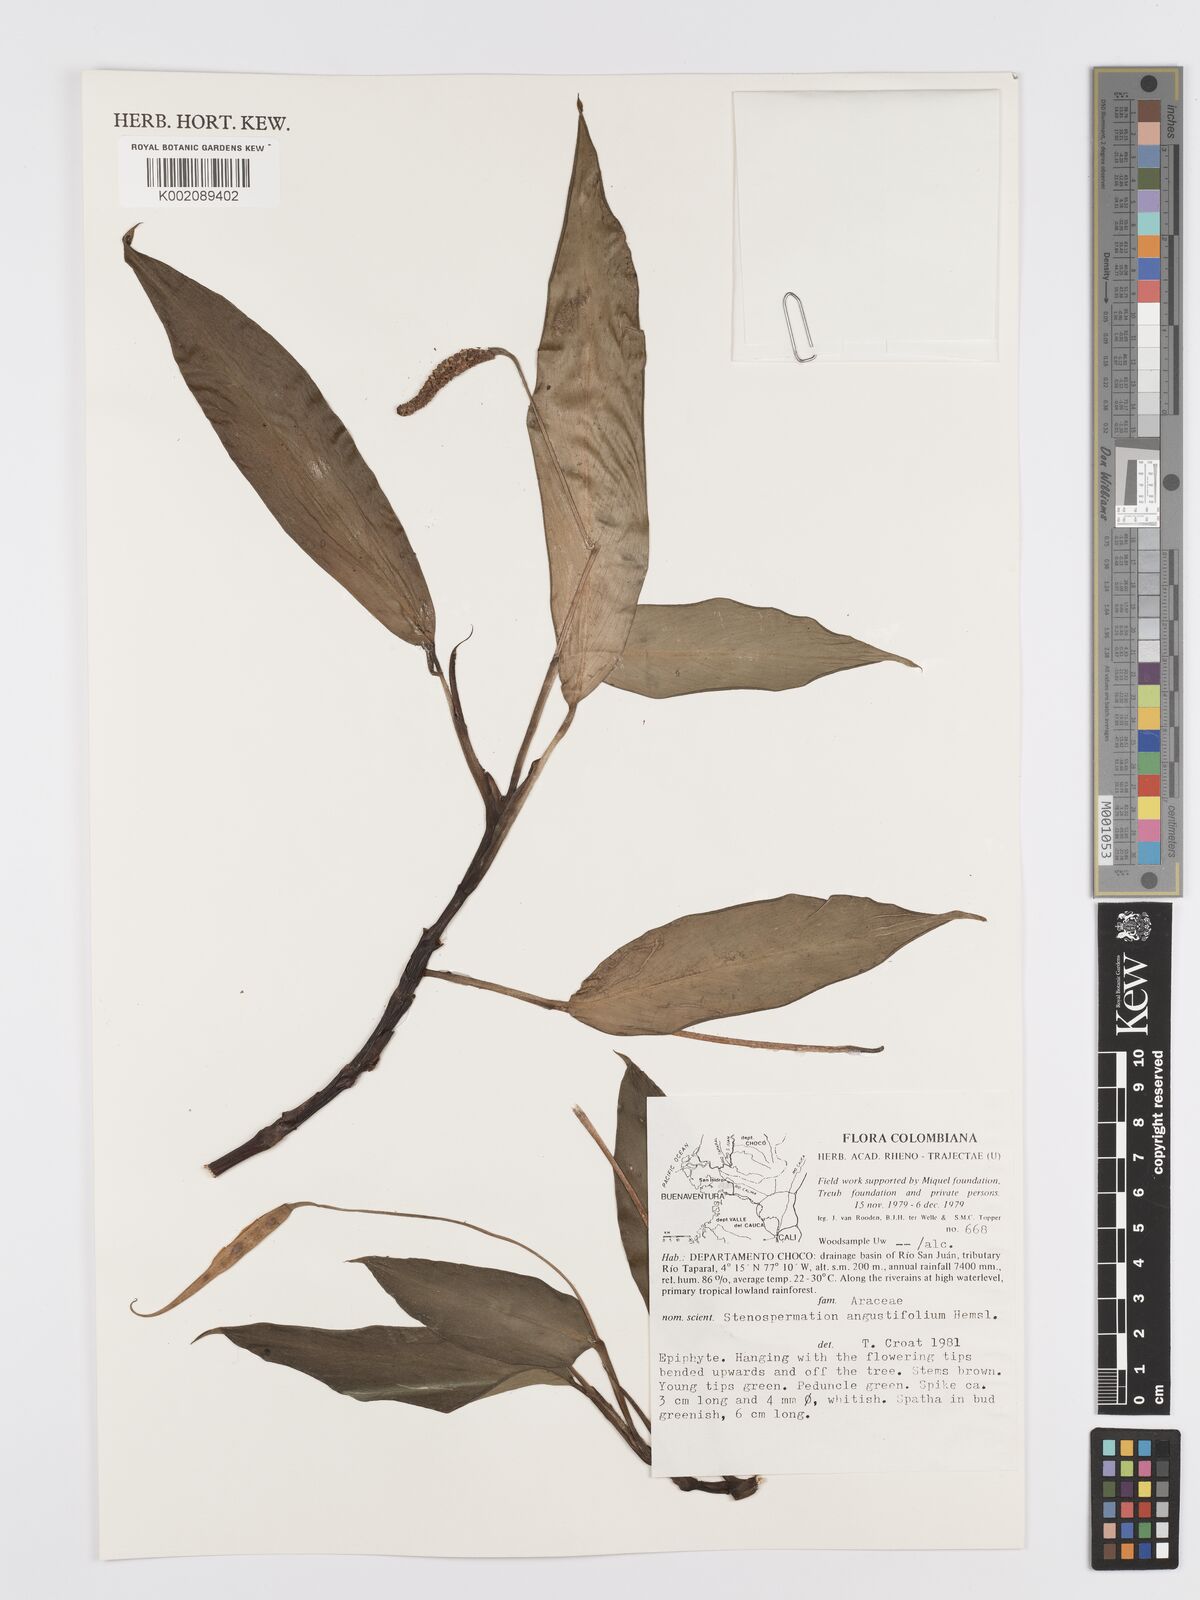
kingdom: Plantae
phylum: Tracheophyta
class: Liliopsida
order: Alismatales
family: Araceae
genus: Stenospermation
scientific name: Stenospermation angustifolium
